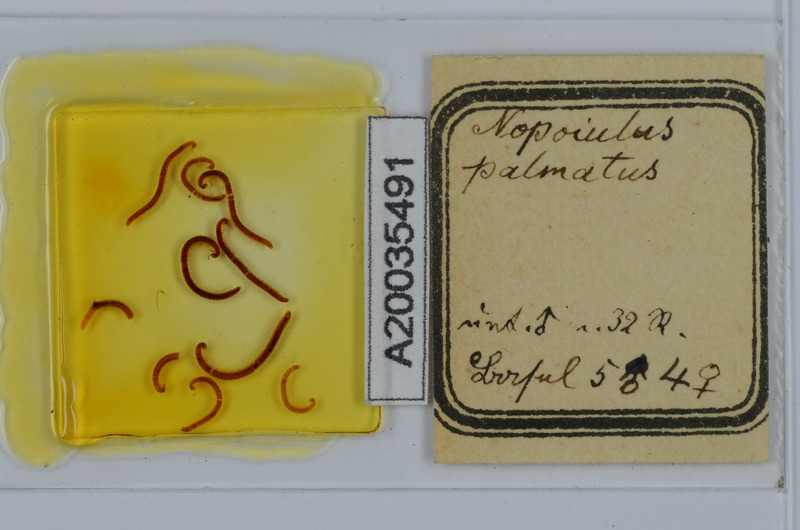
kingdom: Animalia
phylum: Arthropoda
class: Diplopoda
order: Julida
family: Blaniulidae
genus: Nopoiulus
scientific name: Nopoiulus palmatus
